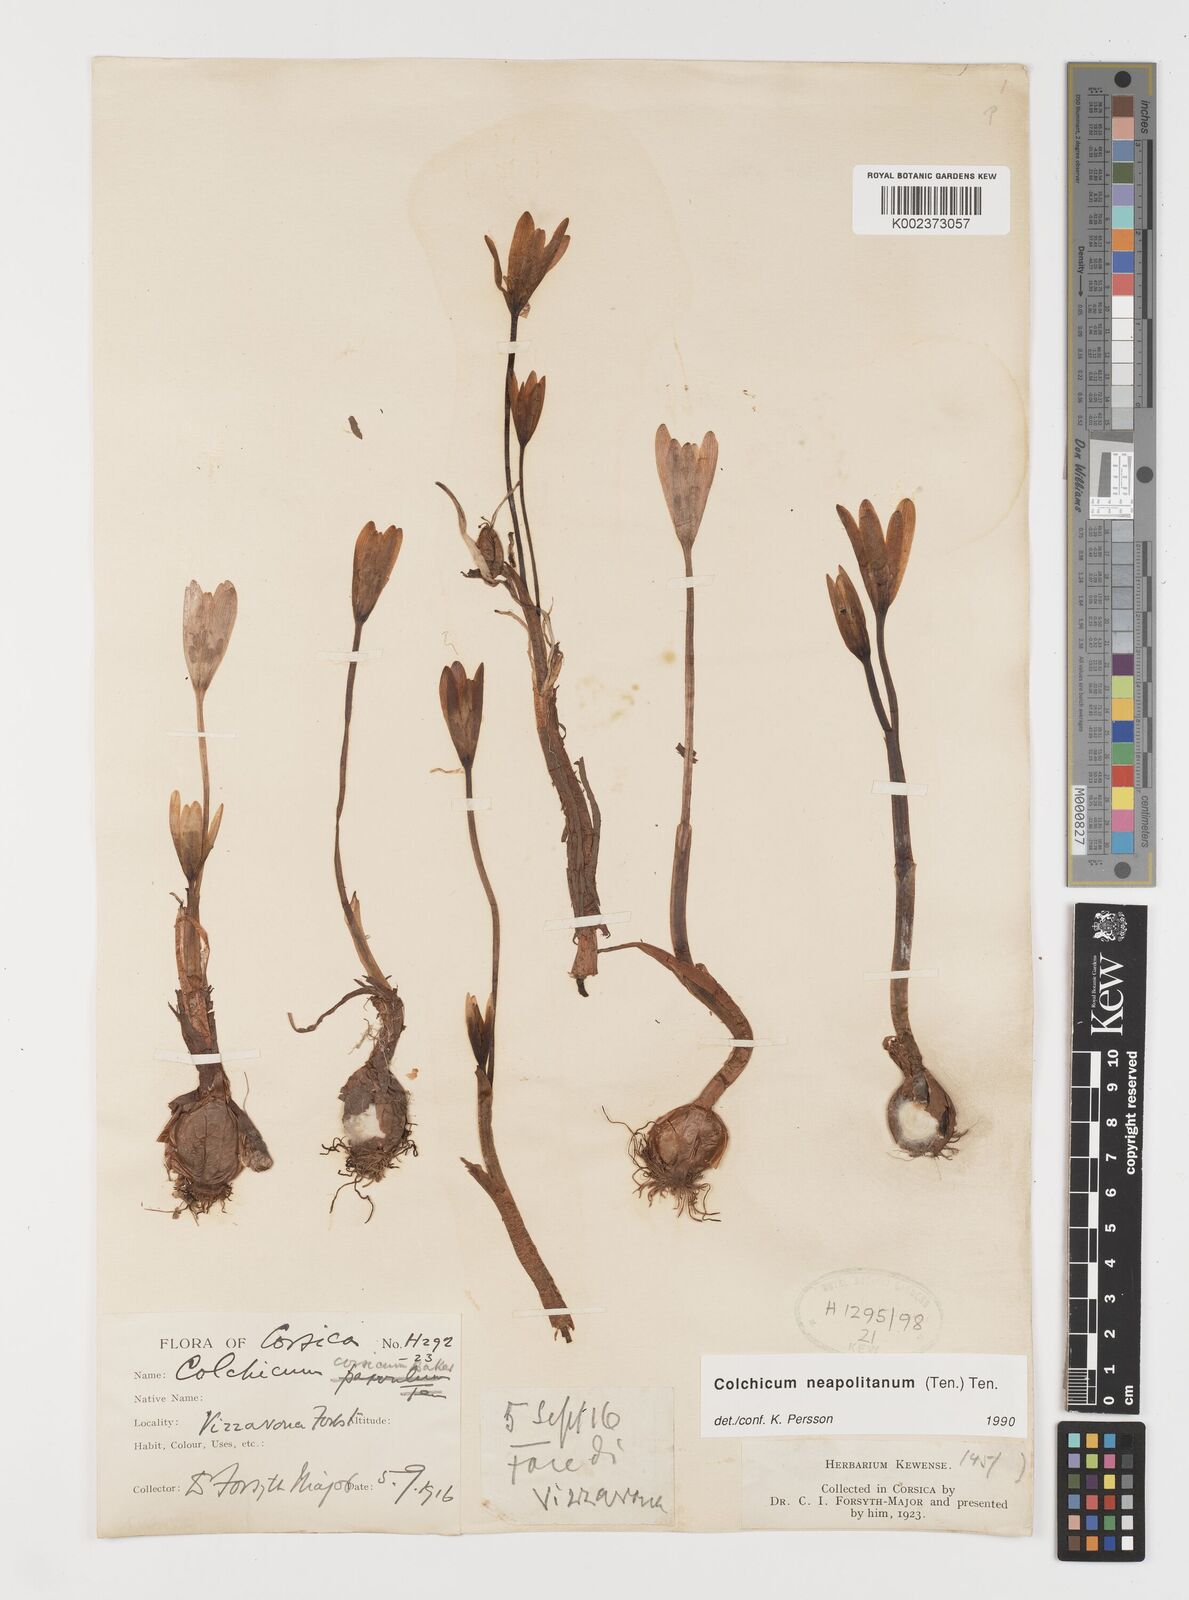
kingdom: Plantae
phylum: Tracheophyta
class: Liliopsida
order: Liliales
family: Colchicaceae
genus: Colchicum
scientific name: Colchicum neapolitanum
